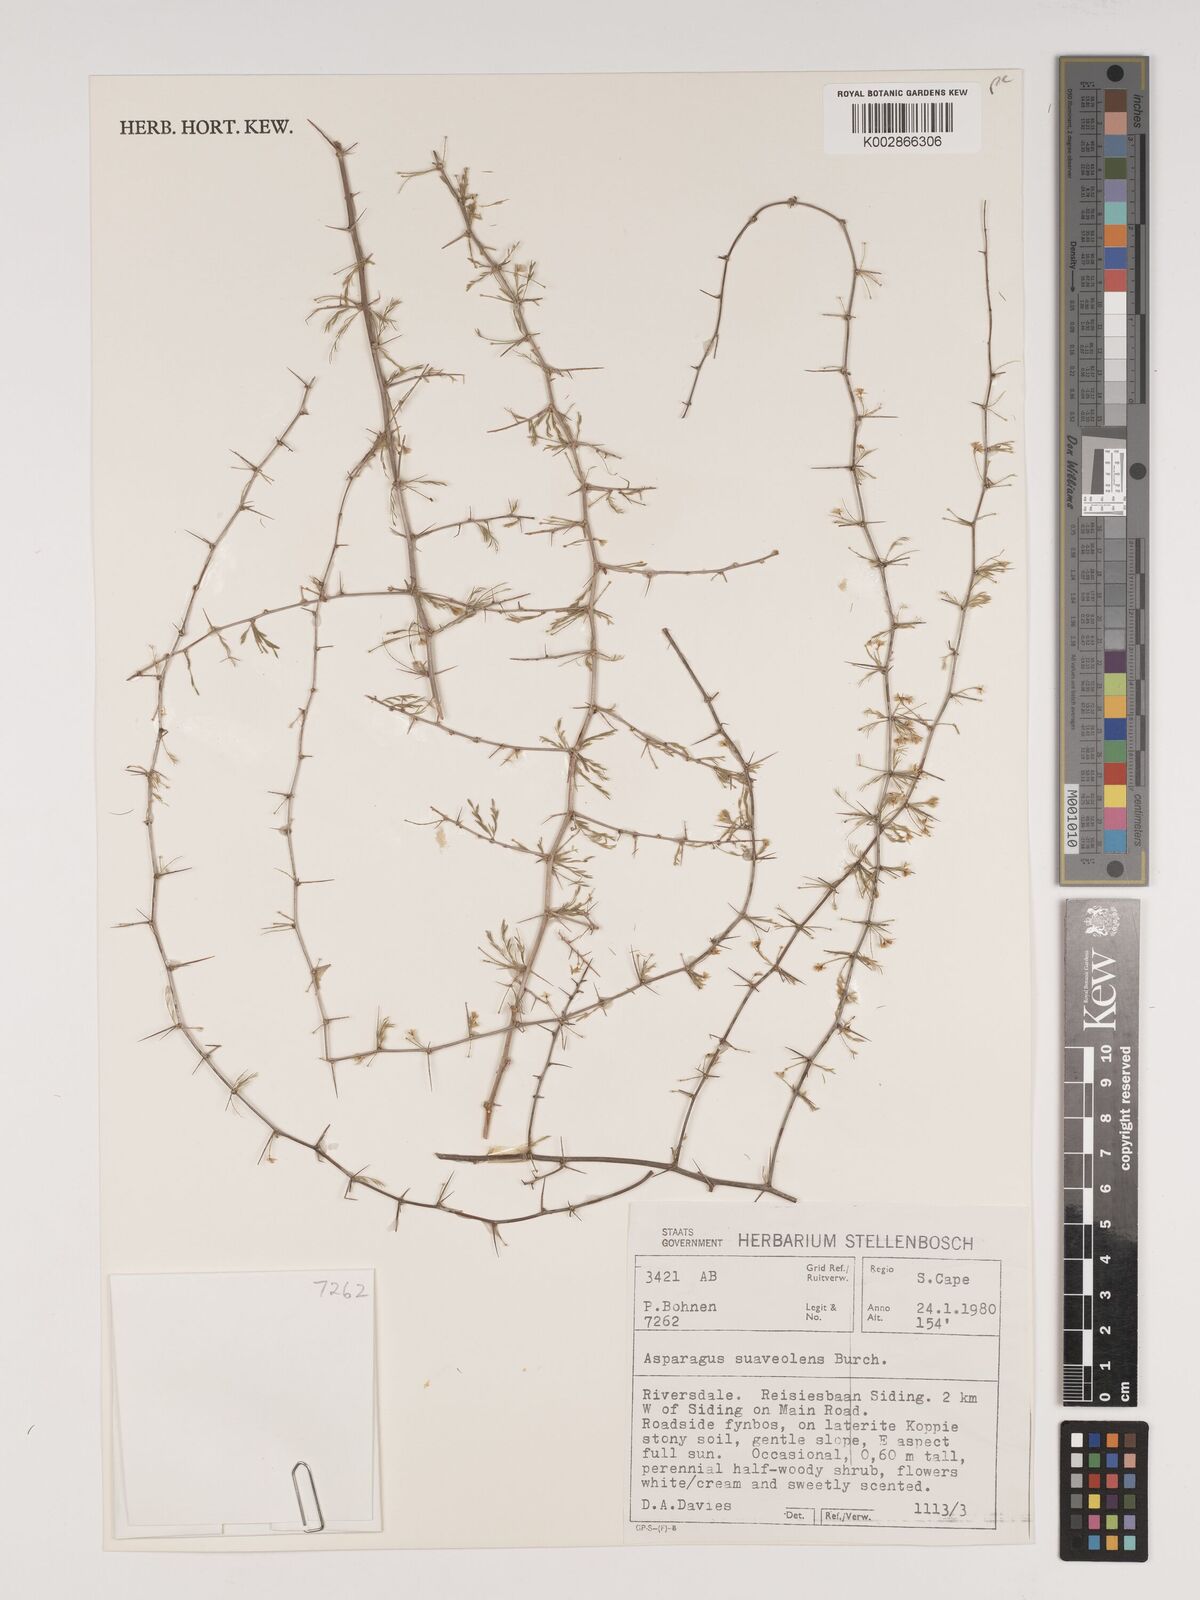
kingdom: Plantae
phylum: Tracheophyta
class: Liliopsida
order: Asparagales
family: Asparagaceae
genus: Asparagus
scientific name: Asparagus suaveolens
